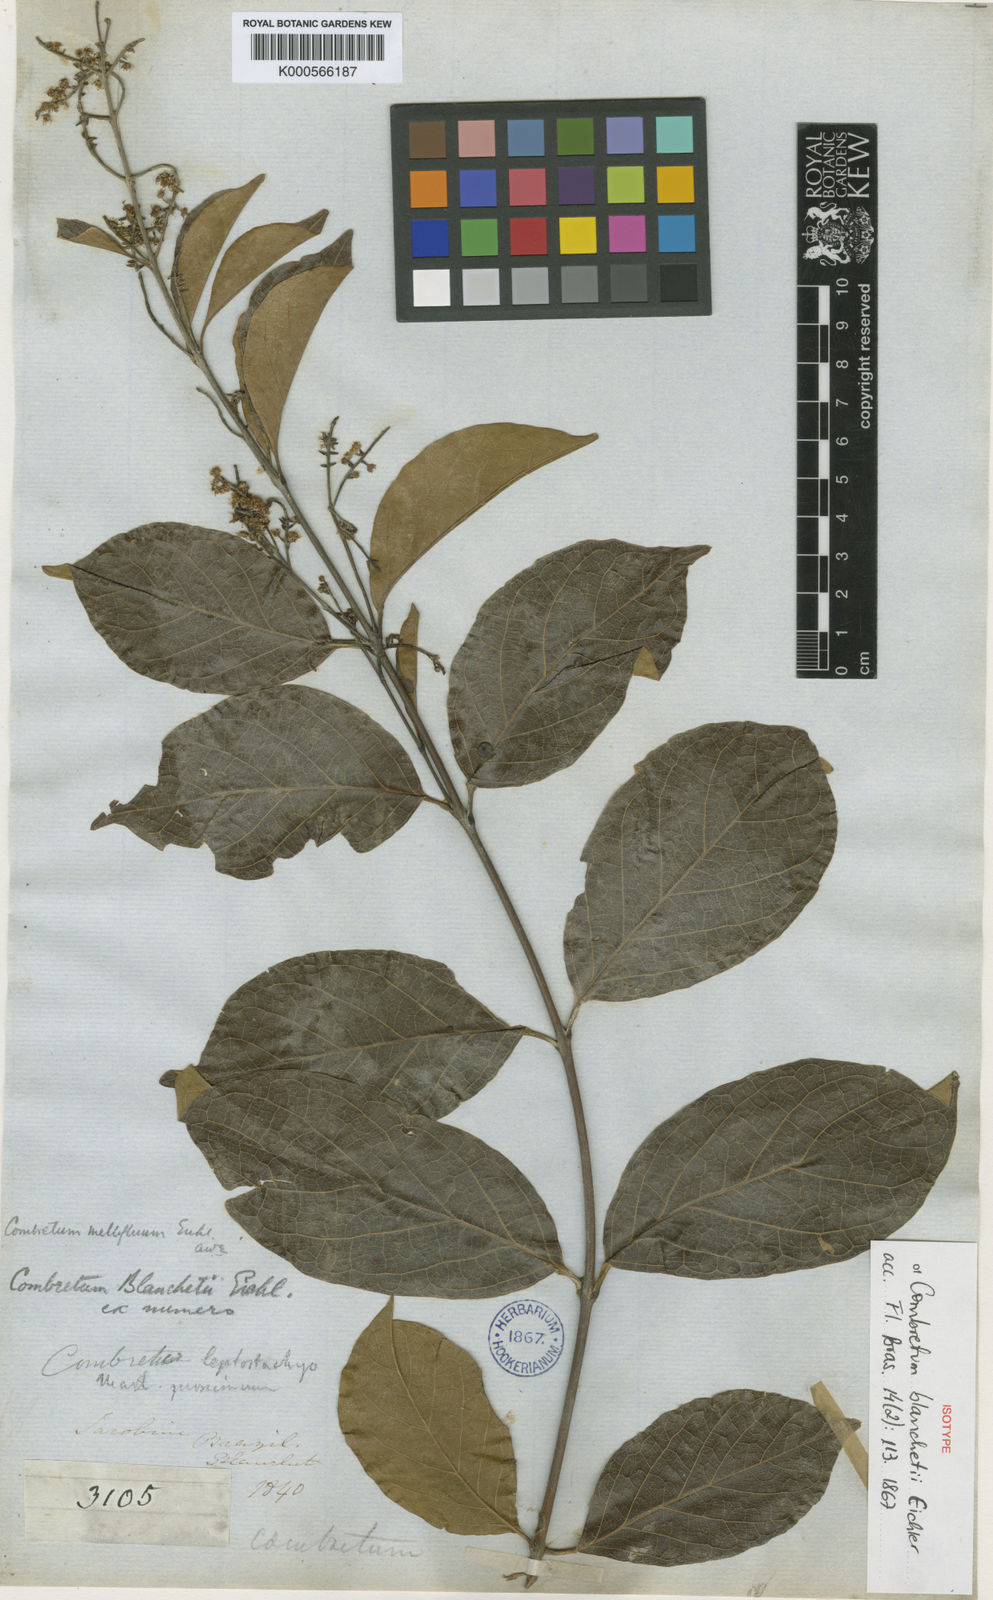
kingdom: Plantae
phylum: Tracheophyta
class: Magnoliopsida
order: Myrtales
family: Combretaceae
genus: Combretum
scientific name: Combretum mellifluum
